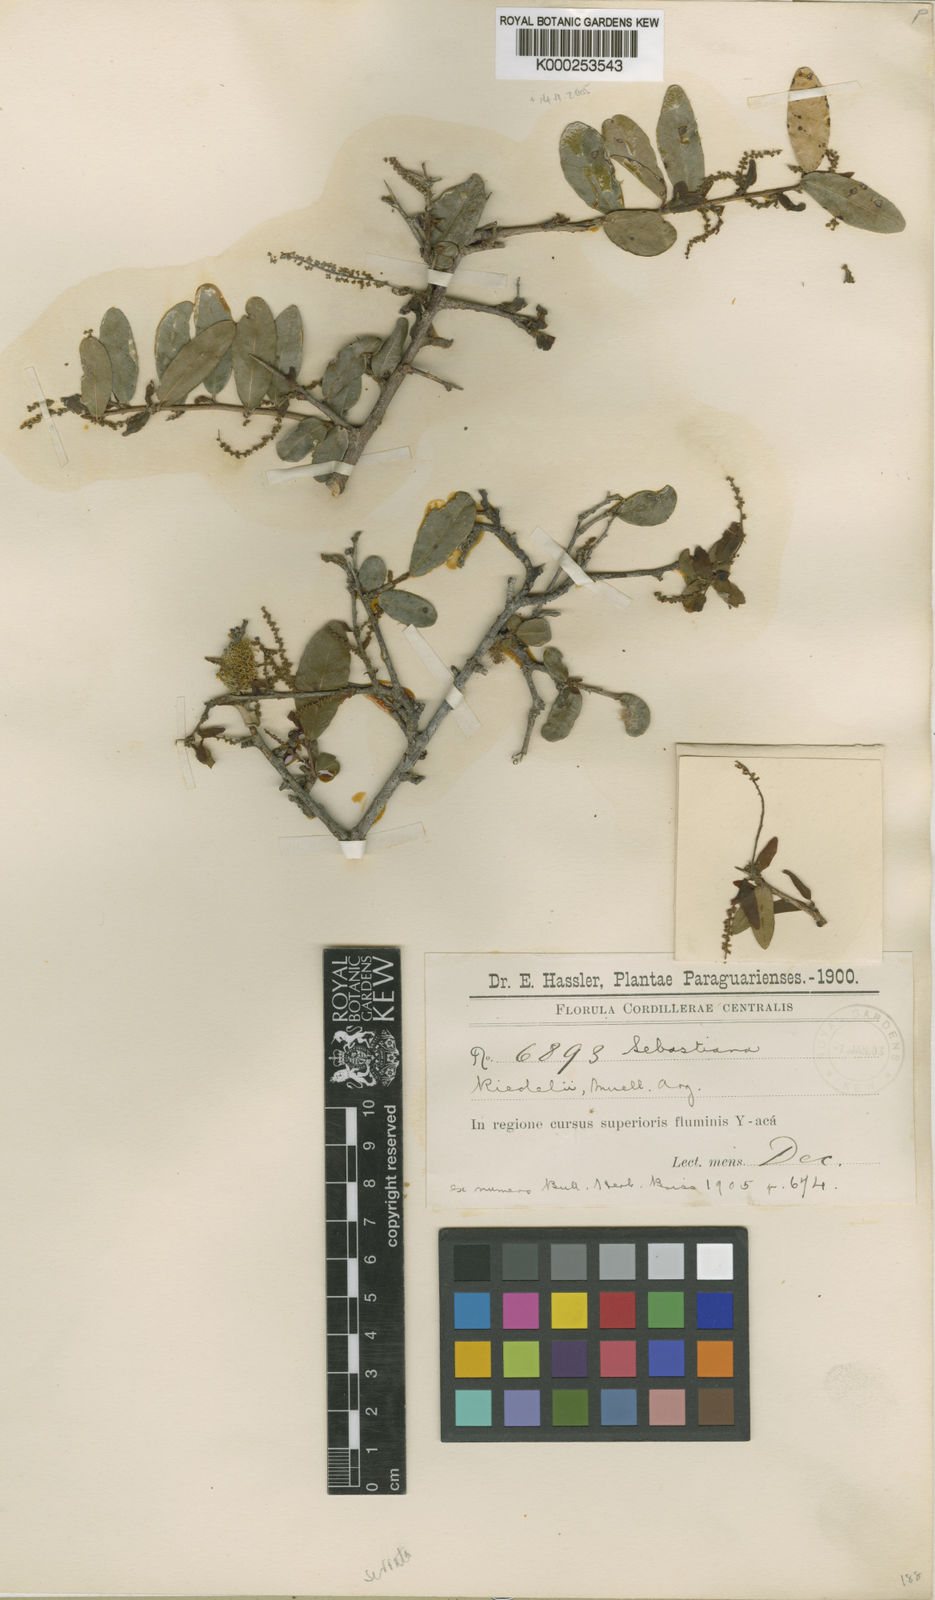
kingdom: Plantae
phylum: Tracheophyta
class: Magnoliopsida
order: Malpighiales
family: Euphorbiaceae
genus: Gymnanthes
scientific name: Gymnanthes
